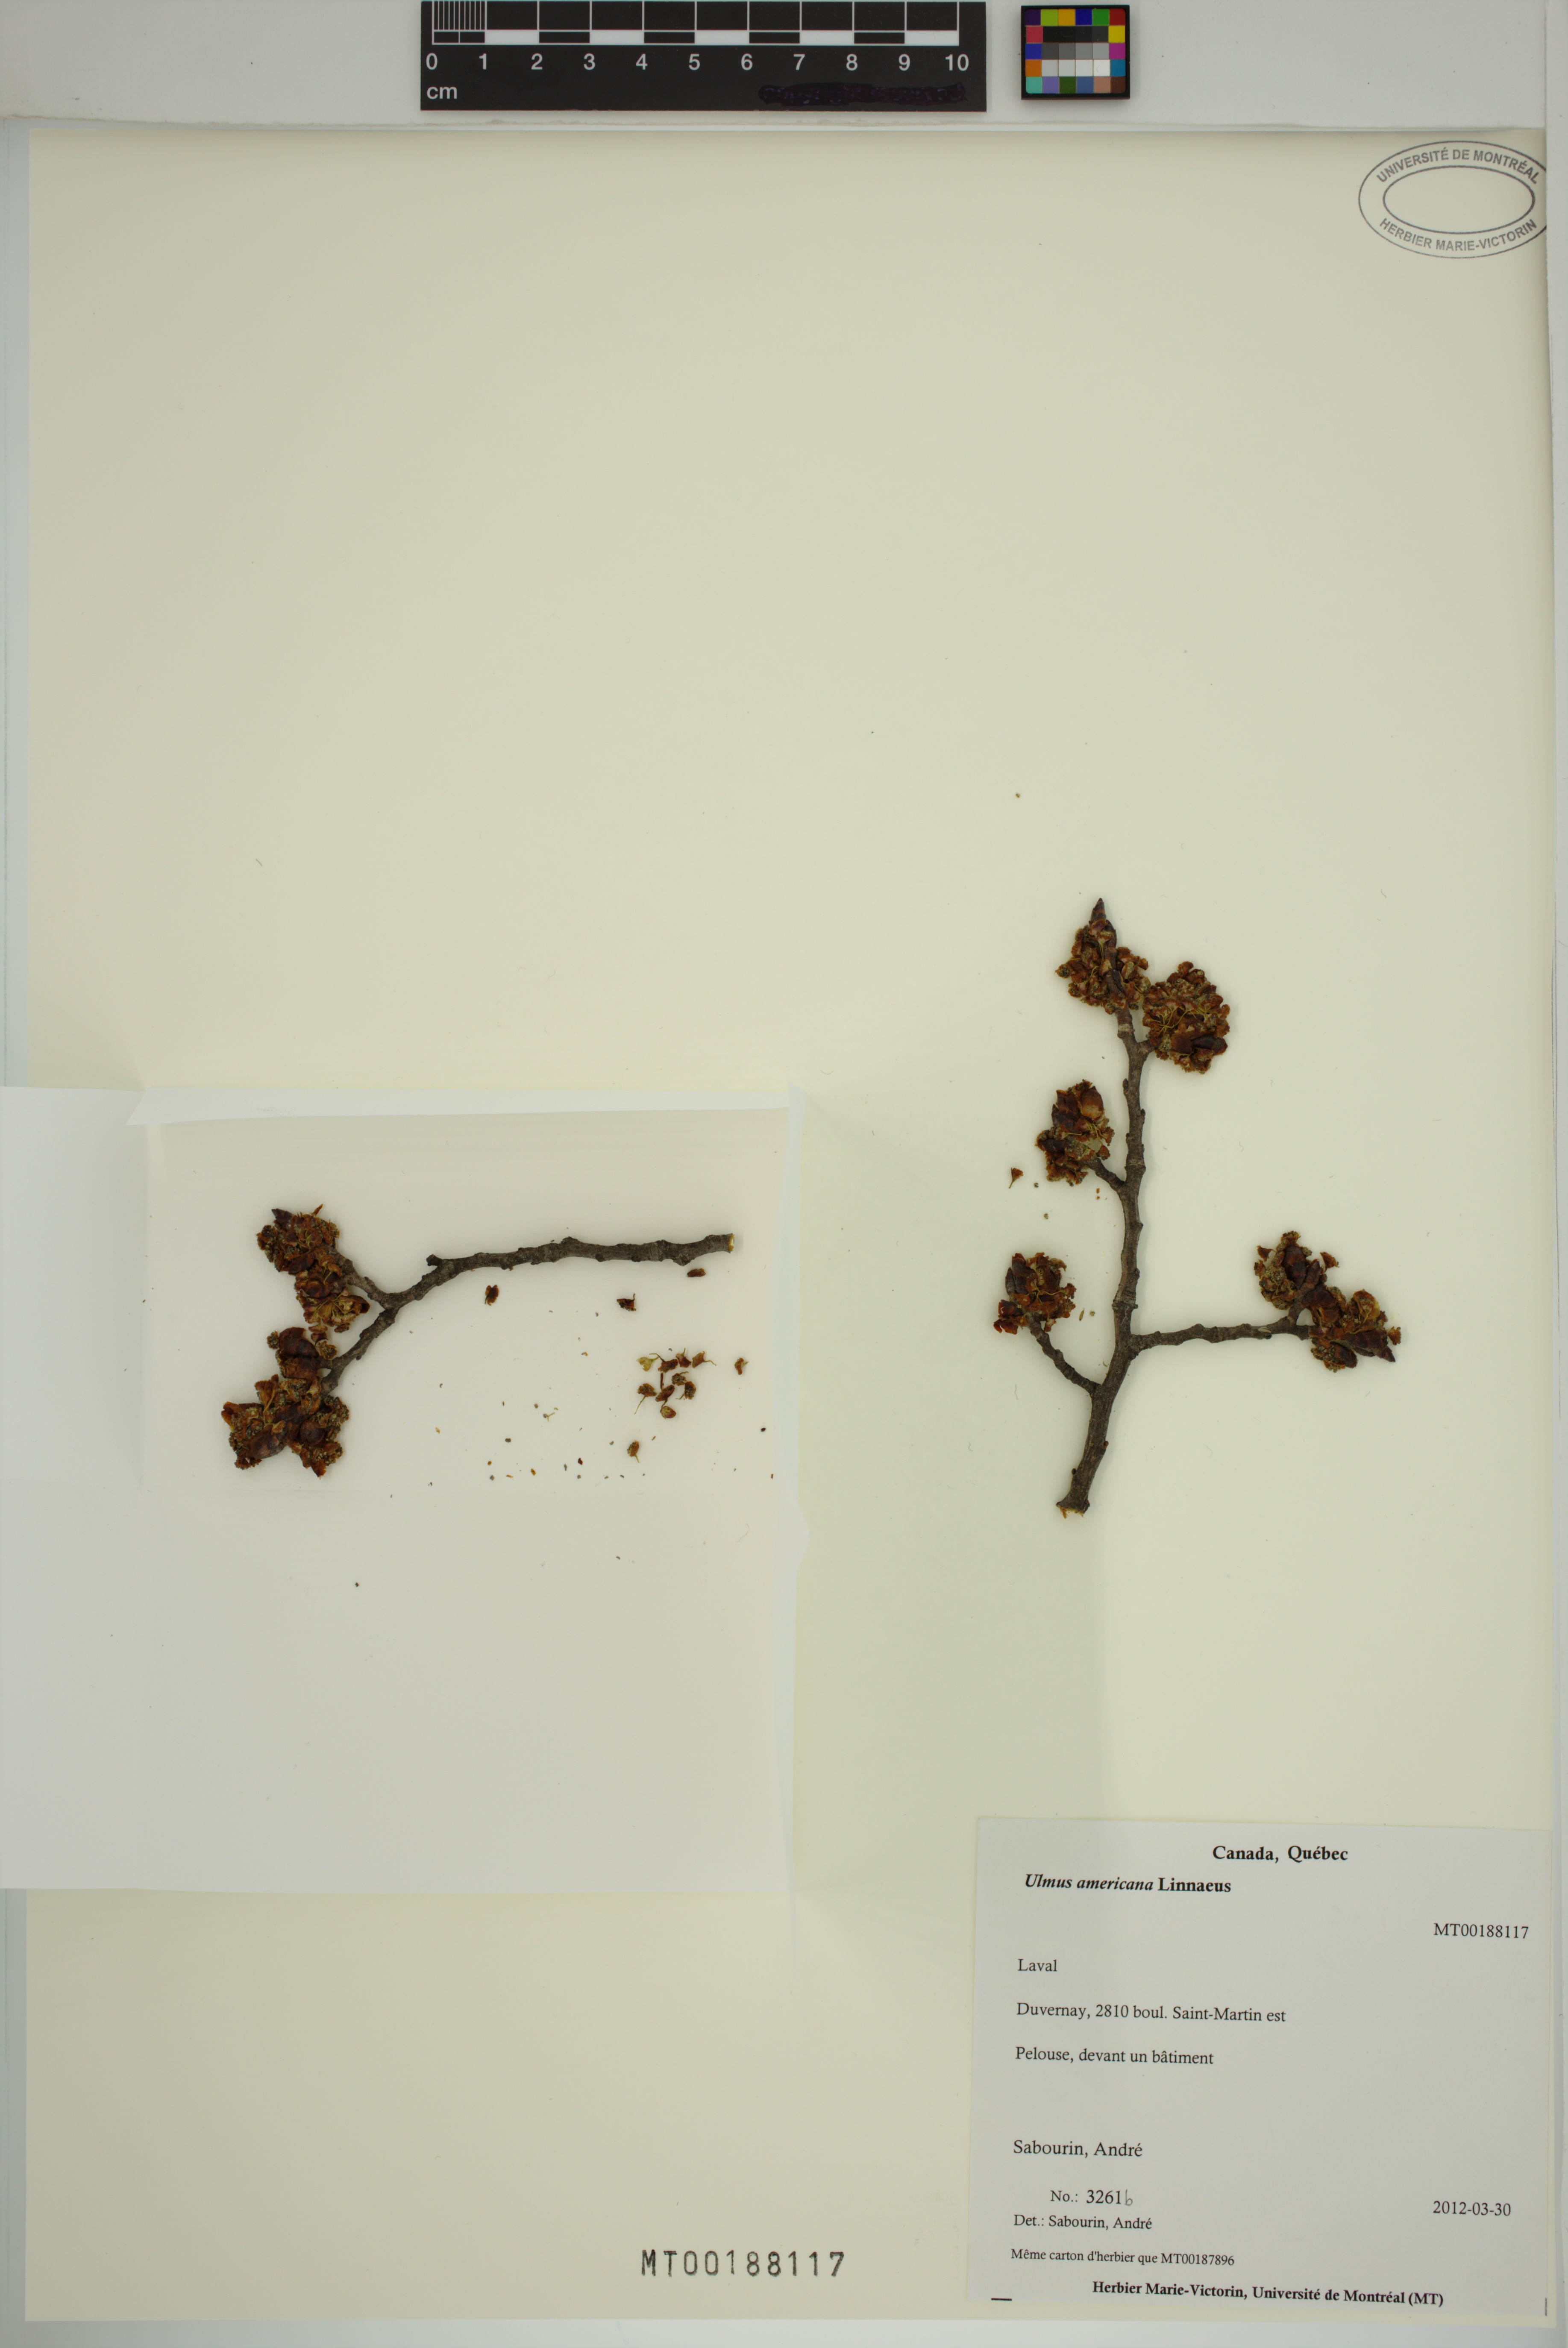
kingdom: Plantae
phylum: Tracheophyta
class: Magnoliopsida
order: Rosales
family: Ulmaceae
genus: Ulmus
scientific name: Ulmus americana
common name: American elm
